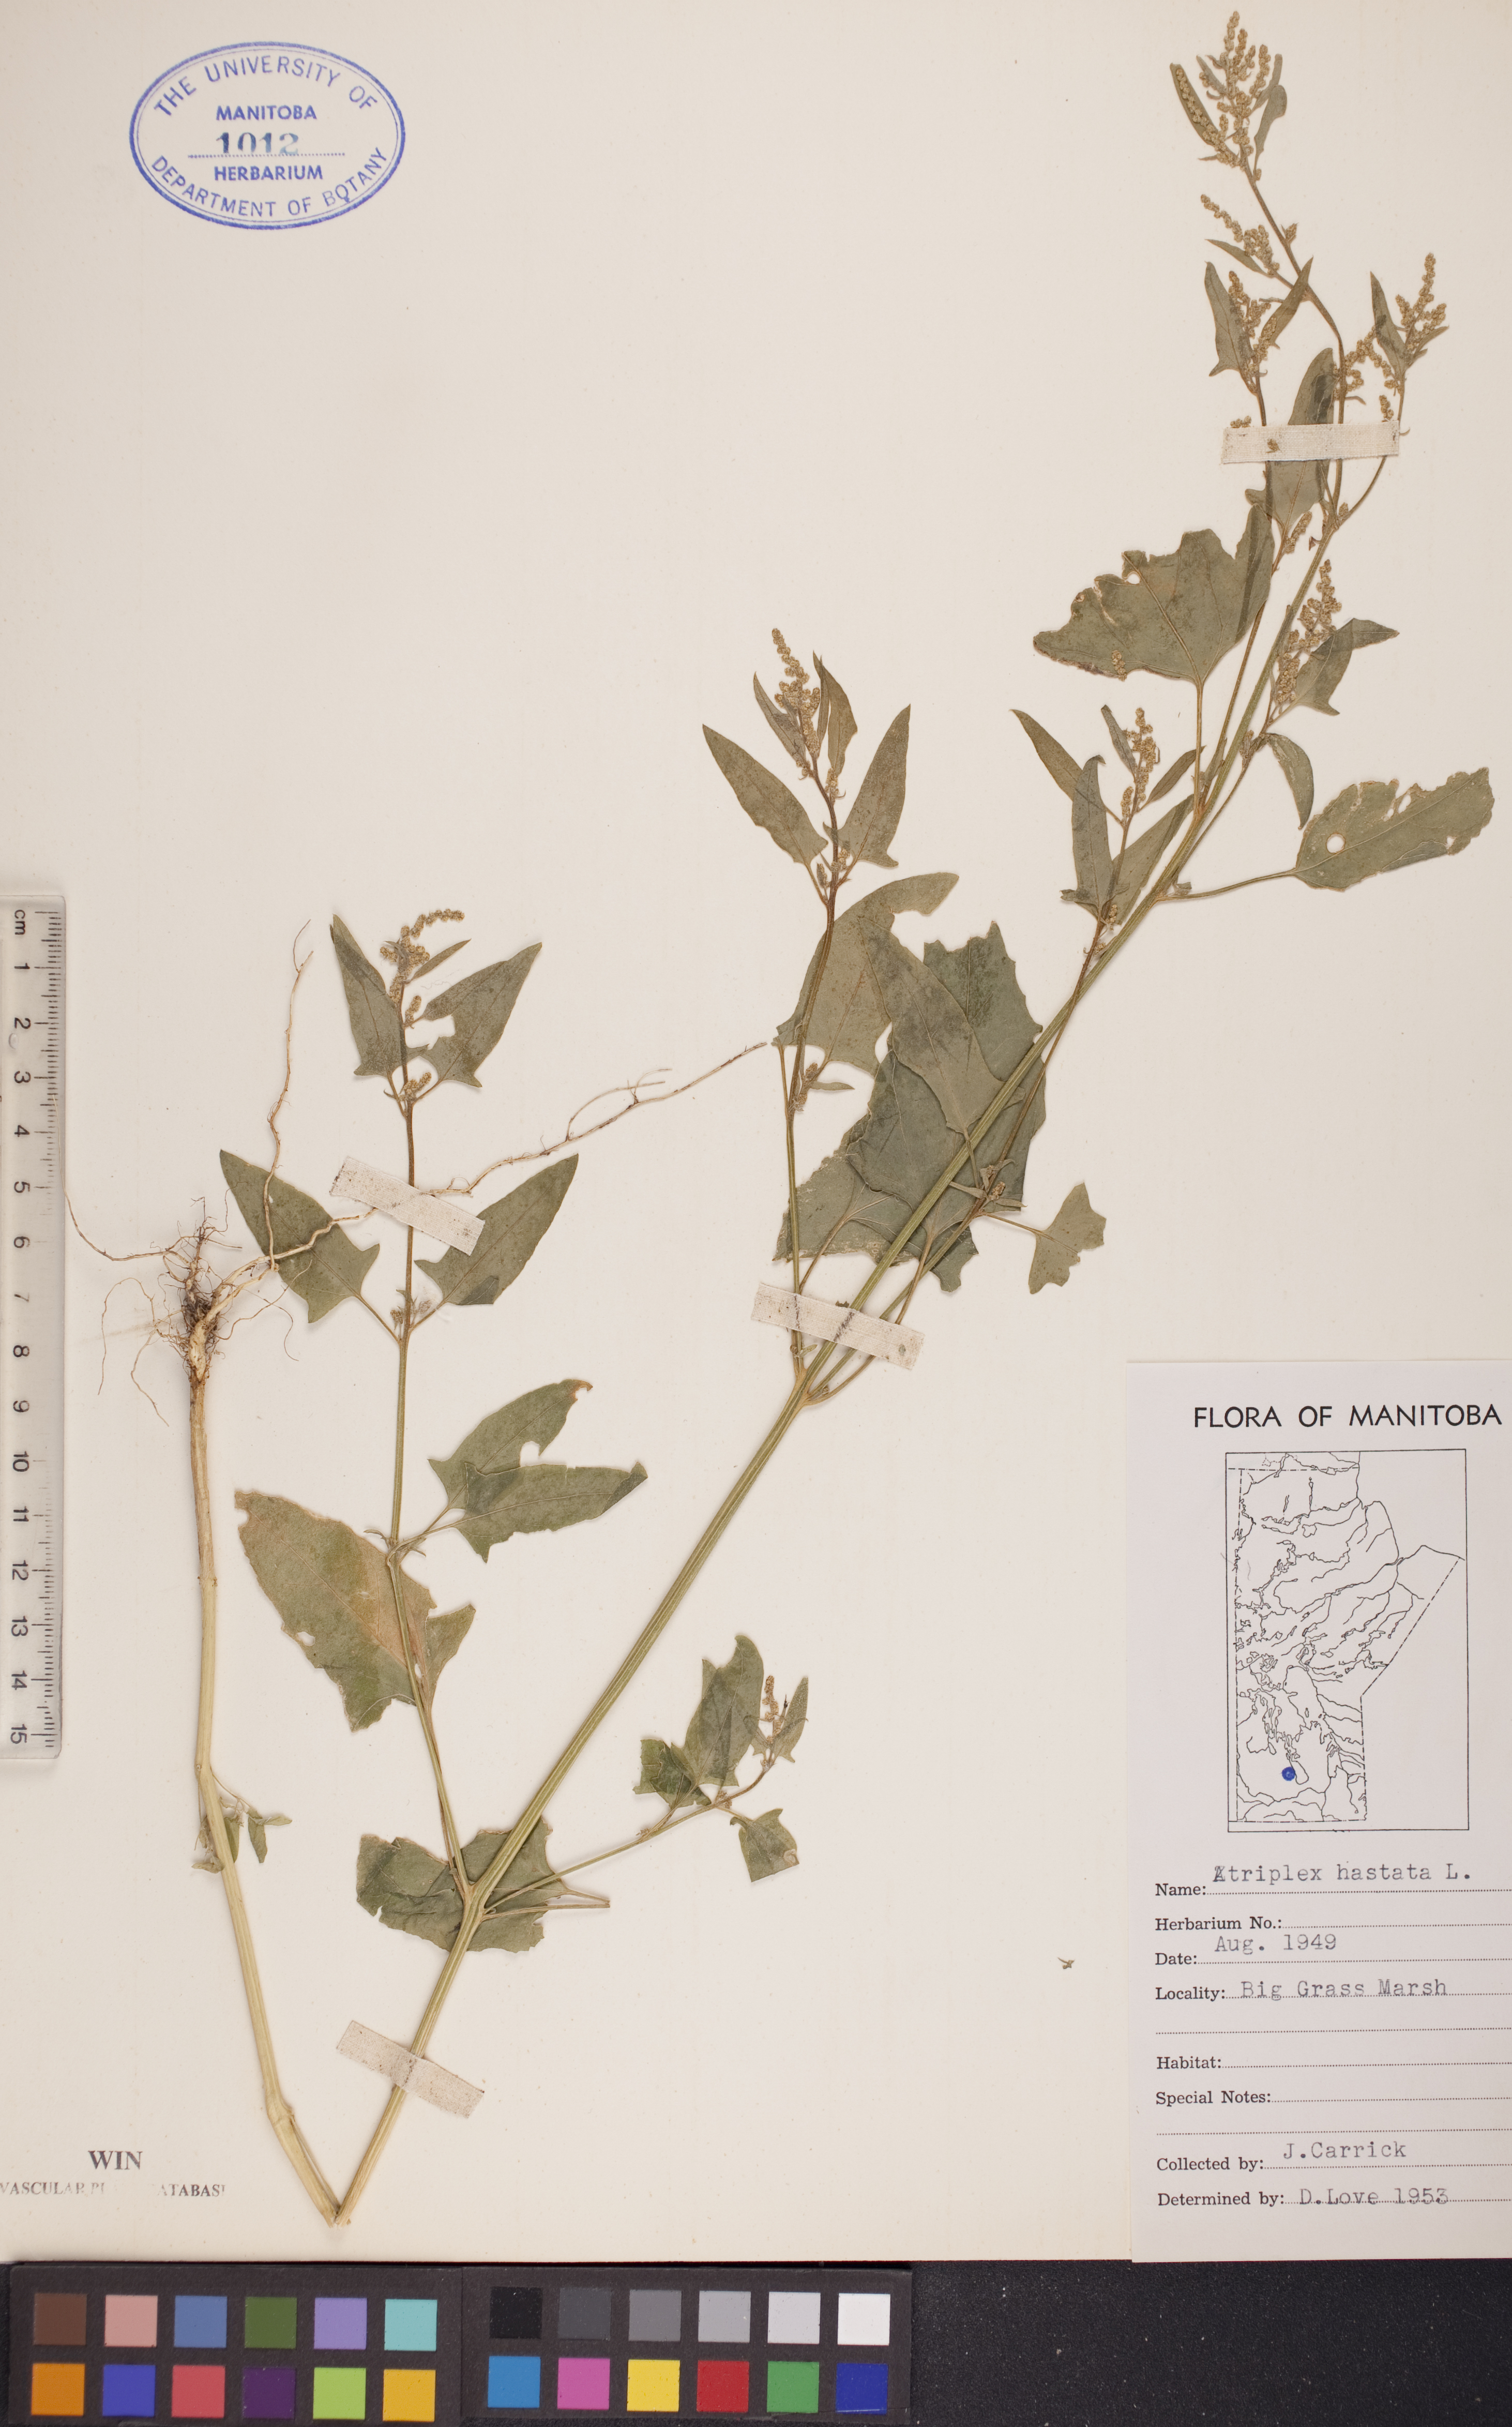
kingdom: Plantae
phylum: Tracheophyta
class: Magnoliopsida
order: Caryophyllales
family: Amaranthaceae
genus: Atriplex
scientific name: Atriplex
